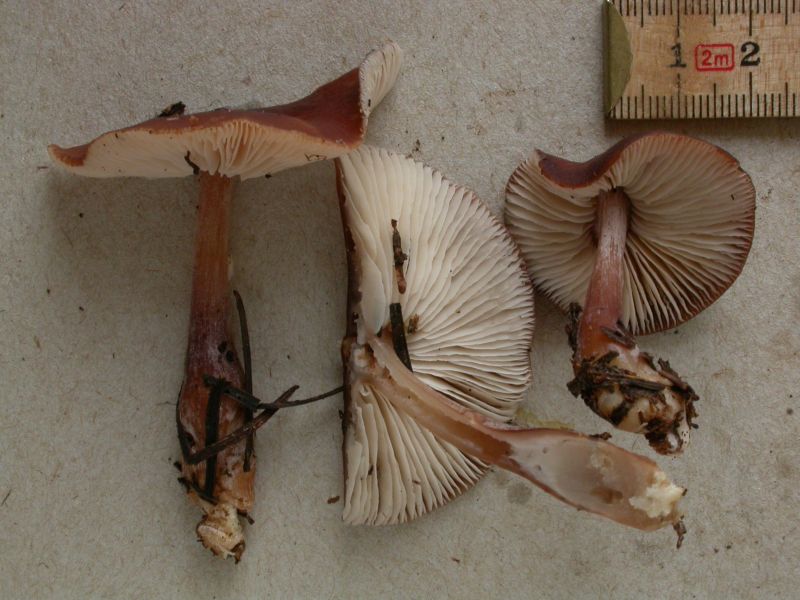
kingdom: Fungi
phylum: Basidiomycota
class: Agaricomycetes
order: Agaricales
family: Omphalotaceae
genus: Rhodocollybia
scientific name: Rhodocollybia filamentosa
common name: fibret fladhat
